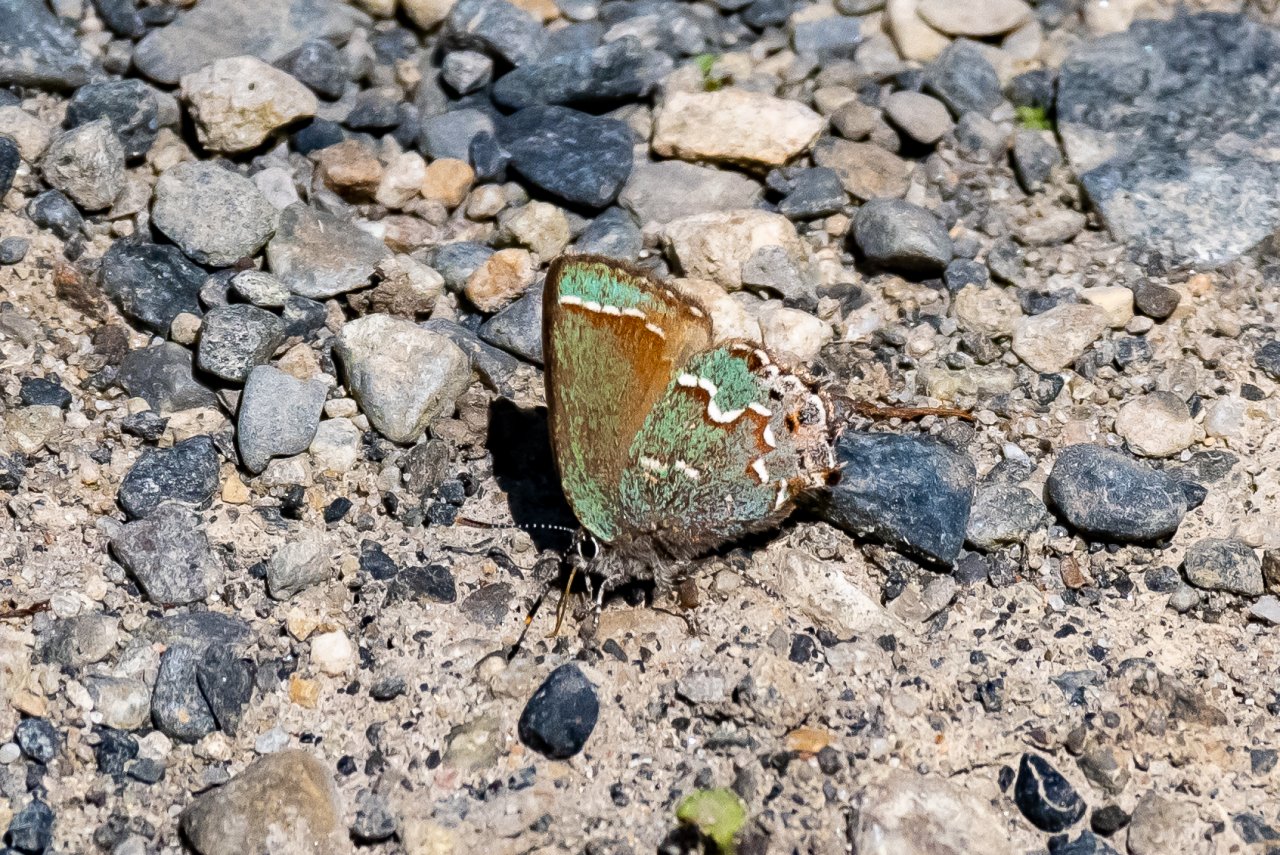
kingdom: Animalia
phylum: Arthropoda
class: Insecta
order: Lepidoptera
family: Lycaenidae
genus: Mitoura
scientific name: Mitoura gryneus
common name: Juniper Hairstreak
